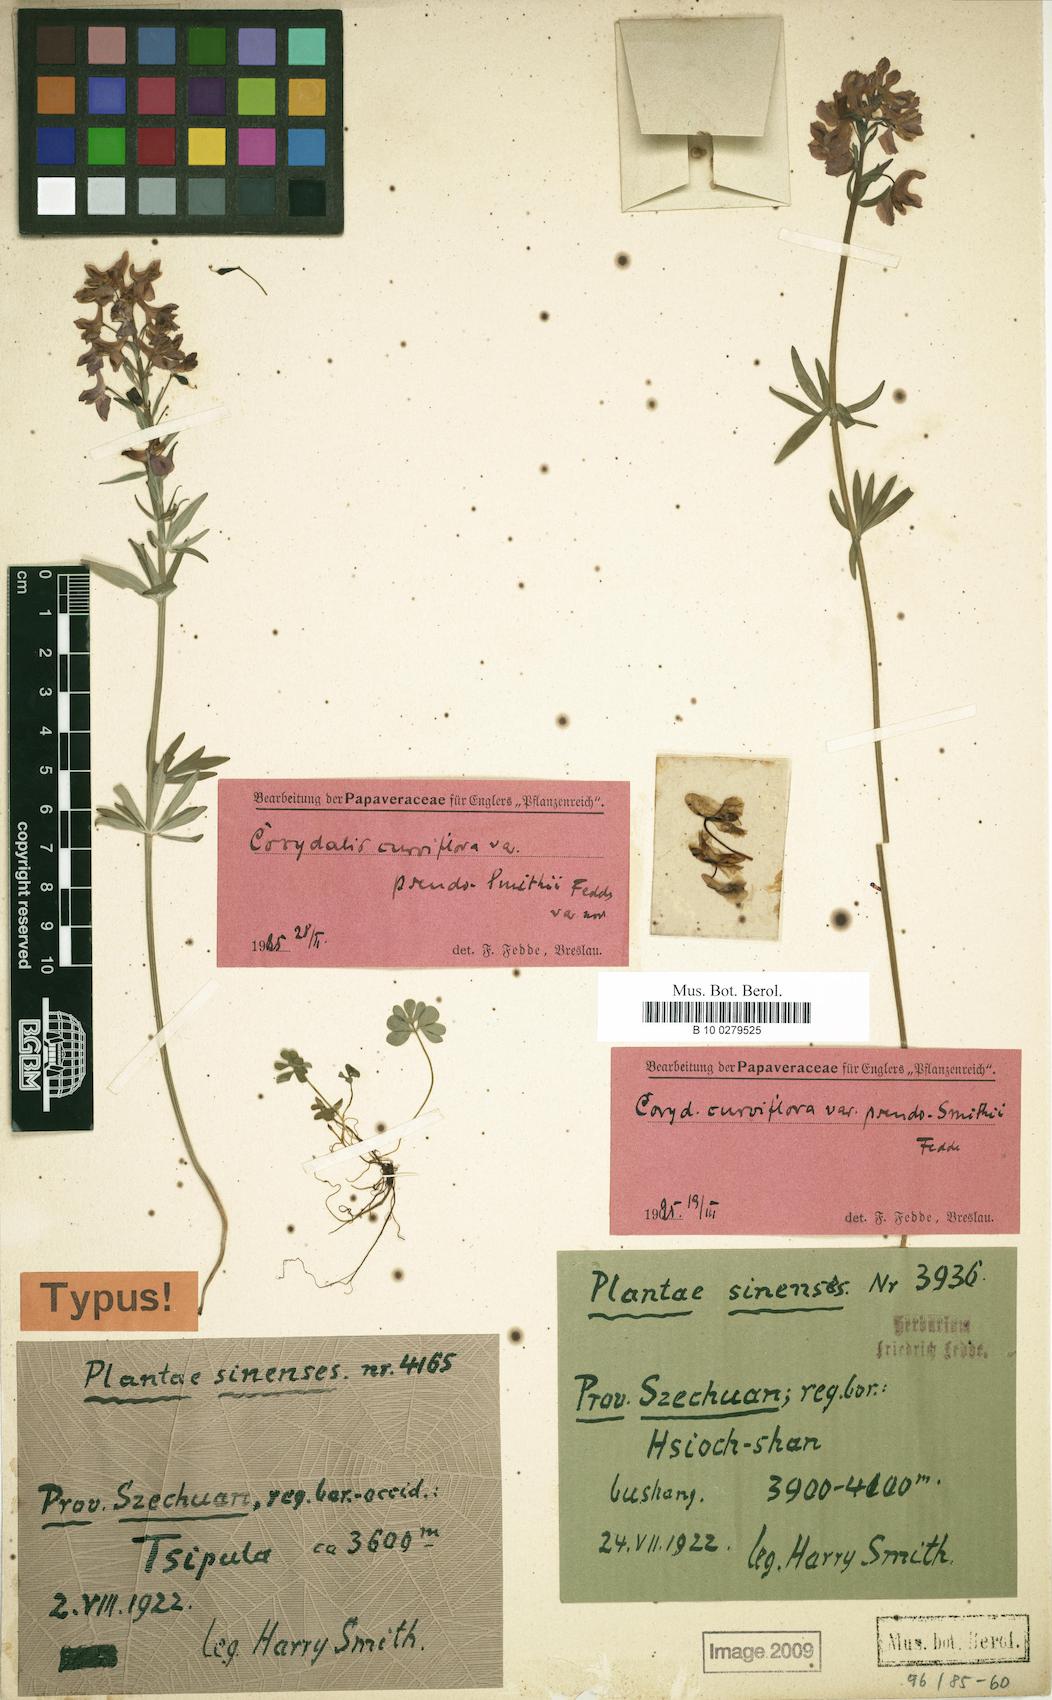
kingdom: Plantae
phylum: Tracheophyta
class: Magnoliopsida
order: Ranunculales
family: Papaveraceae
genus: Corydalis
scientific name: Corydalis cytisiflora
